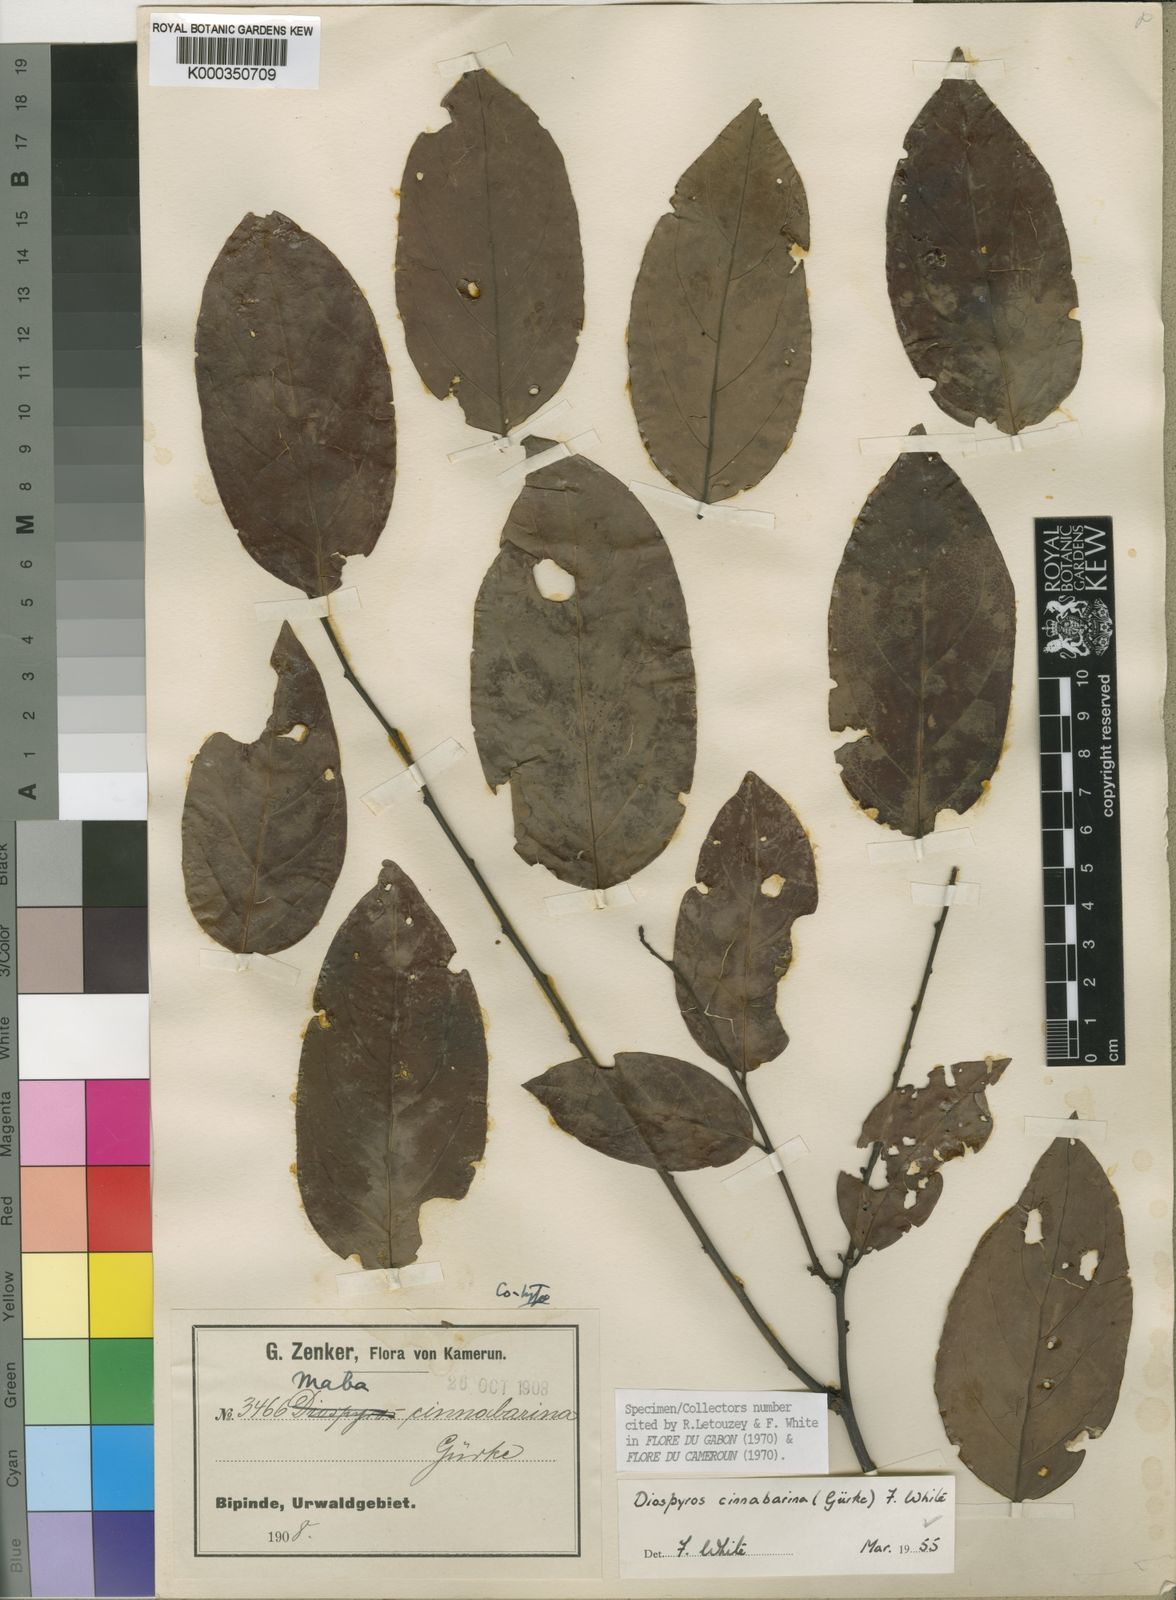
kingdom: Plantae
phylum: Tracheophyta
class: Magnoliopsida
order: Ericales
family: Ebenaceae
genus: Diospyros
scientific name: Diospyros
